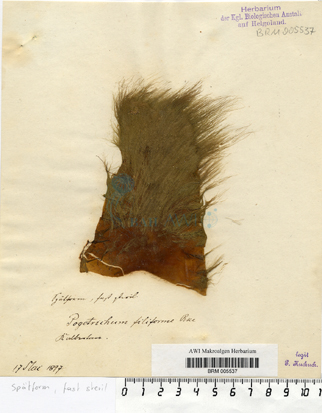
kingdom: Chromista
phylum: Ochrophyta
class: Phaeophyceae
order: Ectocarpales
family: Acinetosporaceae
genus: Pogotrichum
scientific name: Pogotrichum filiforme
